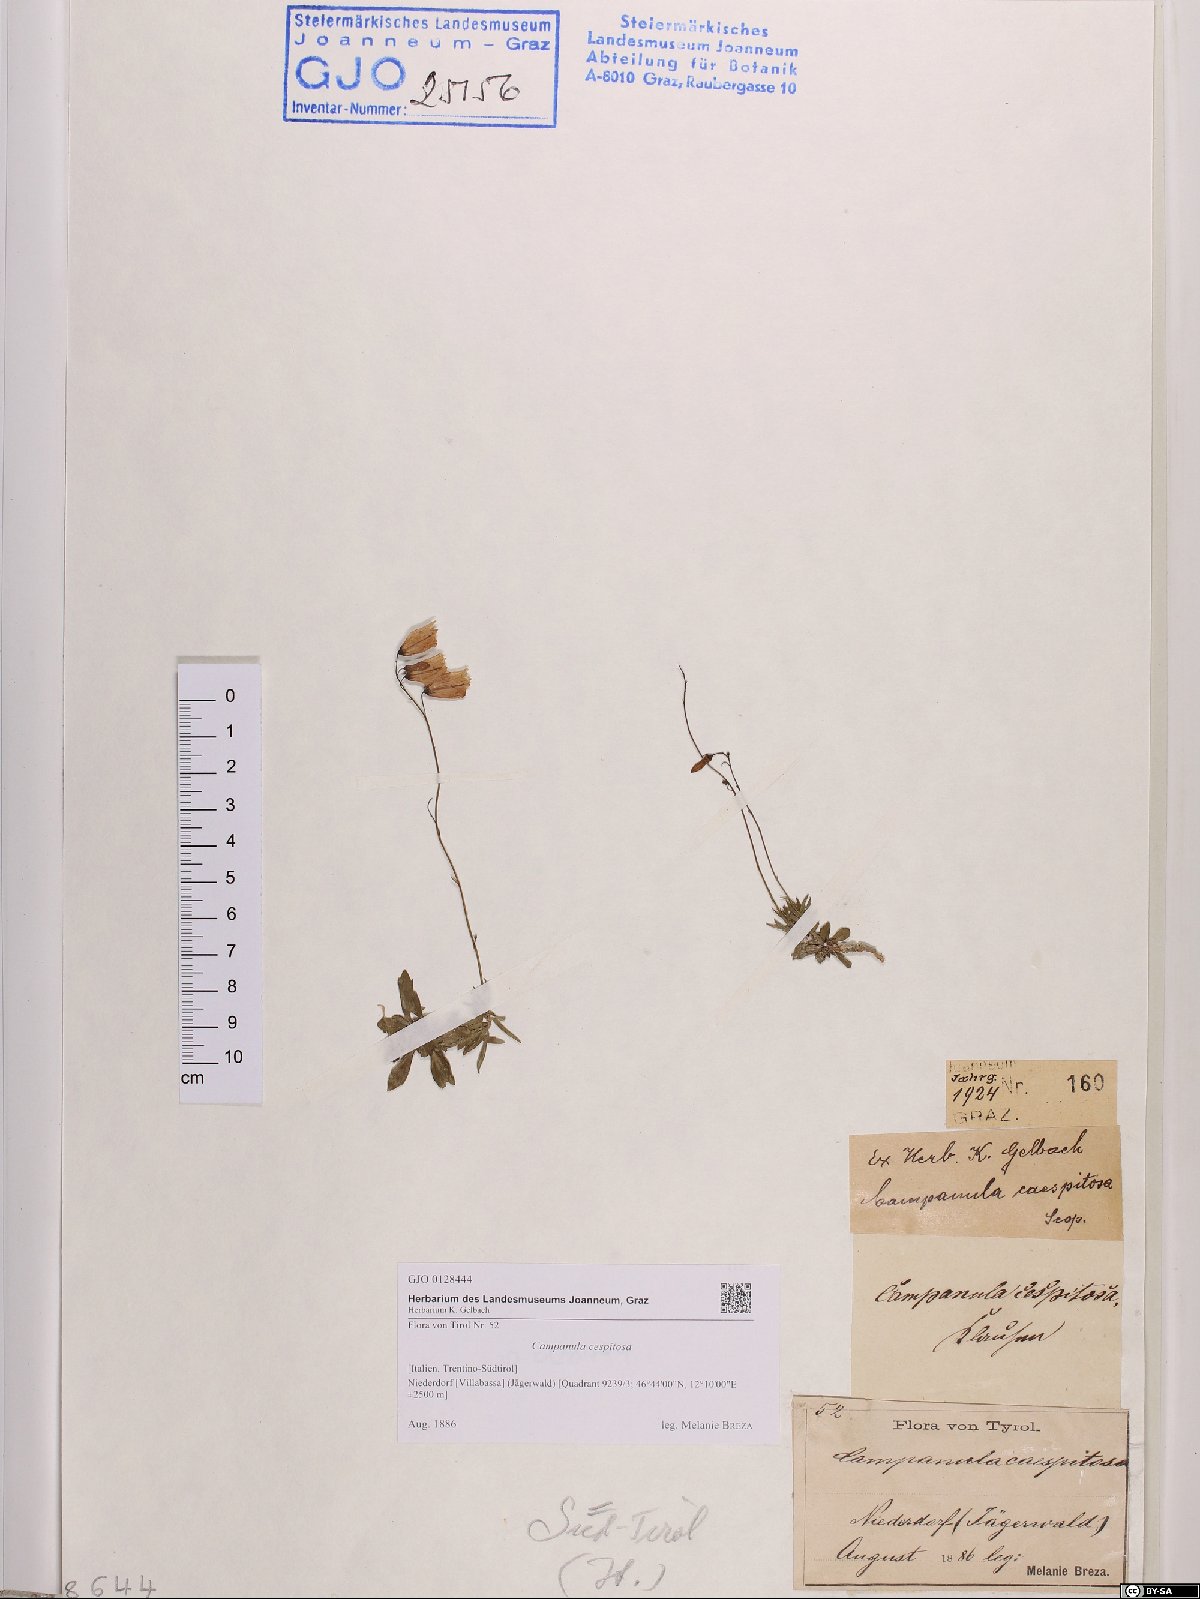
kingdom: Plantae
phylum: Tracheophyta
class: Magnoliopsida
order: Asterales
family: Campanulaceae
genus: Campanula
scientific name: Campanula cespitosa
